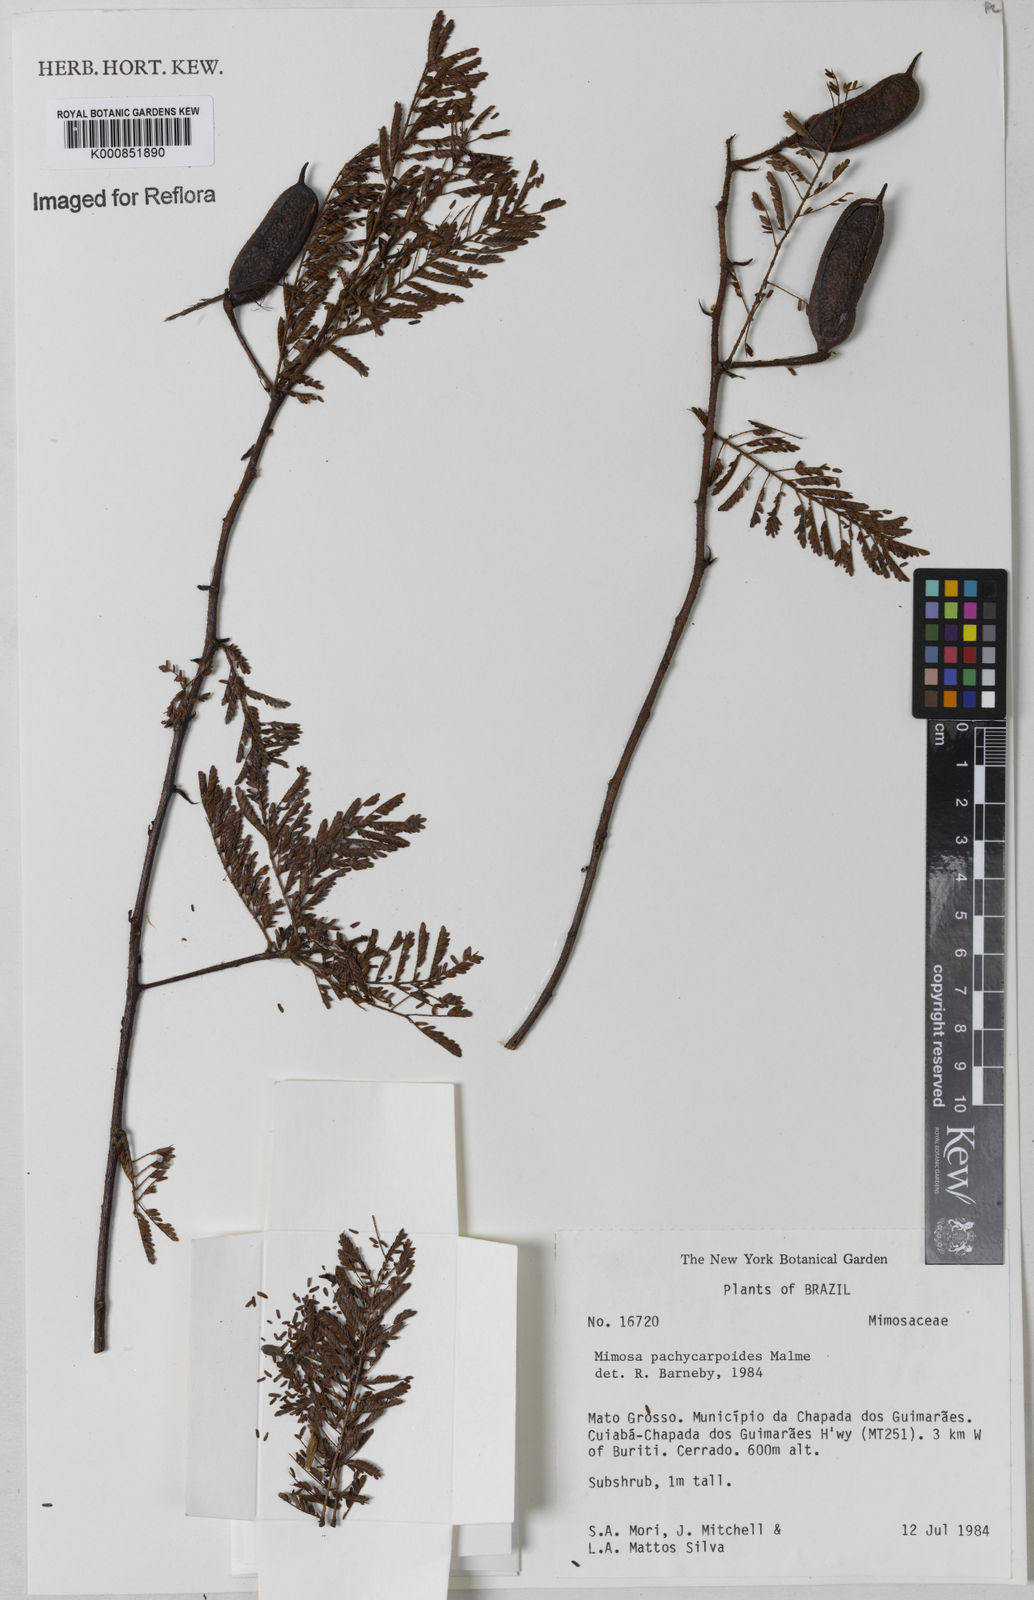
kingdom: Plantae
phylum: Tracheophyta
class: Magnoliopsida
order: Fabales
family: Fabaceae
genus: Mimosa
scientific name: Mimosa pachycarpoides
